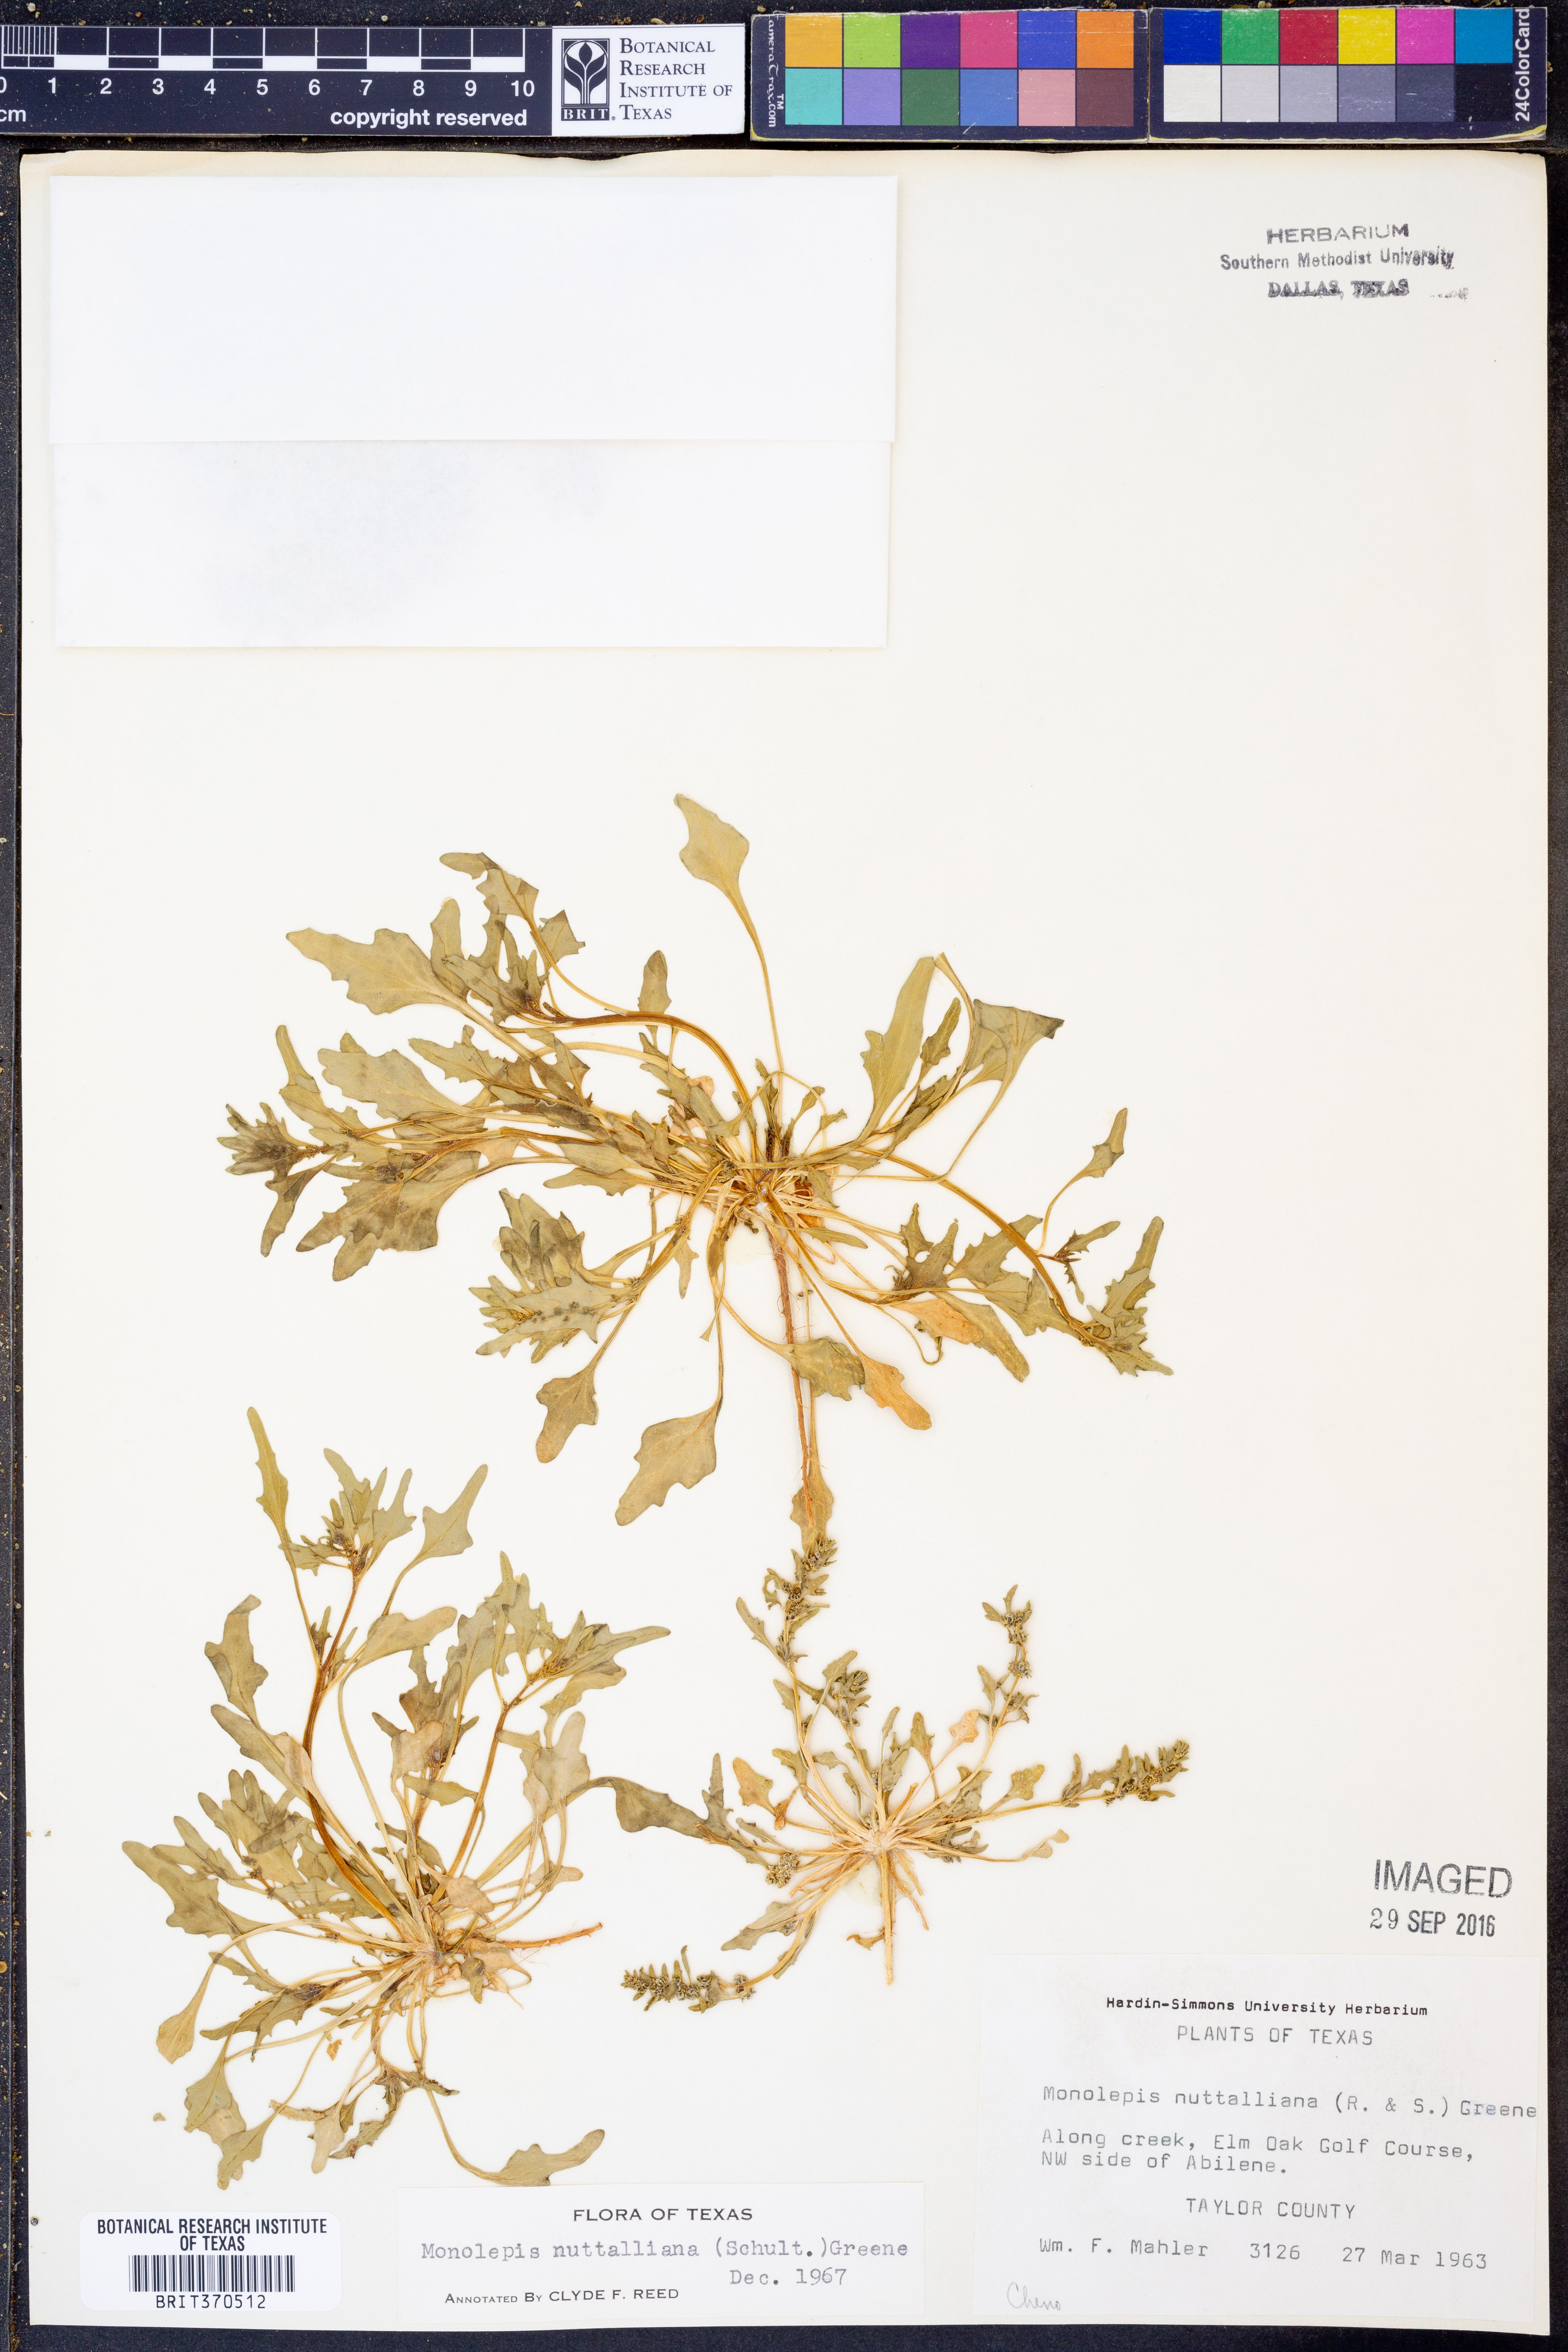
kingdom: Plantae
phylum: Tracheophyta
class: Magnoliopsida
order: Caryophyllales
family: Amaranthaceae
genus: Blitum
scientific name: Blitum nuttallianum
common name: Poverty-weed
